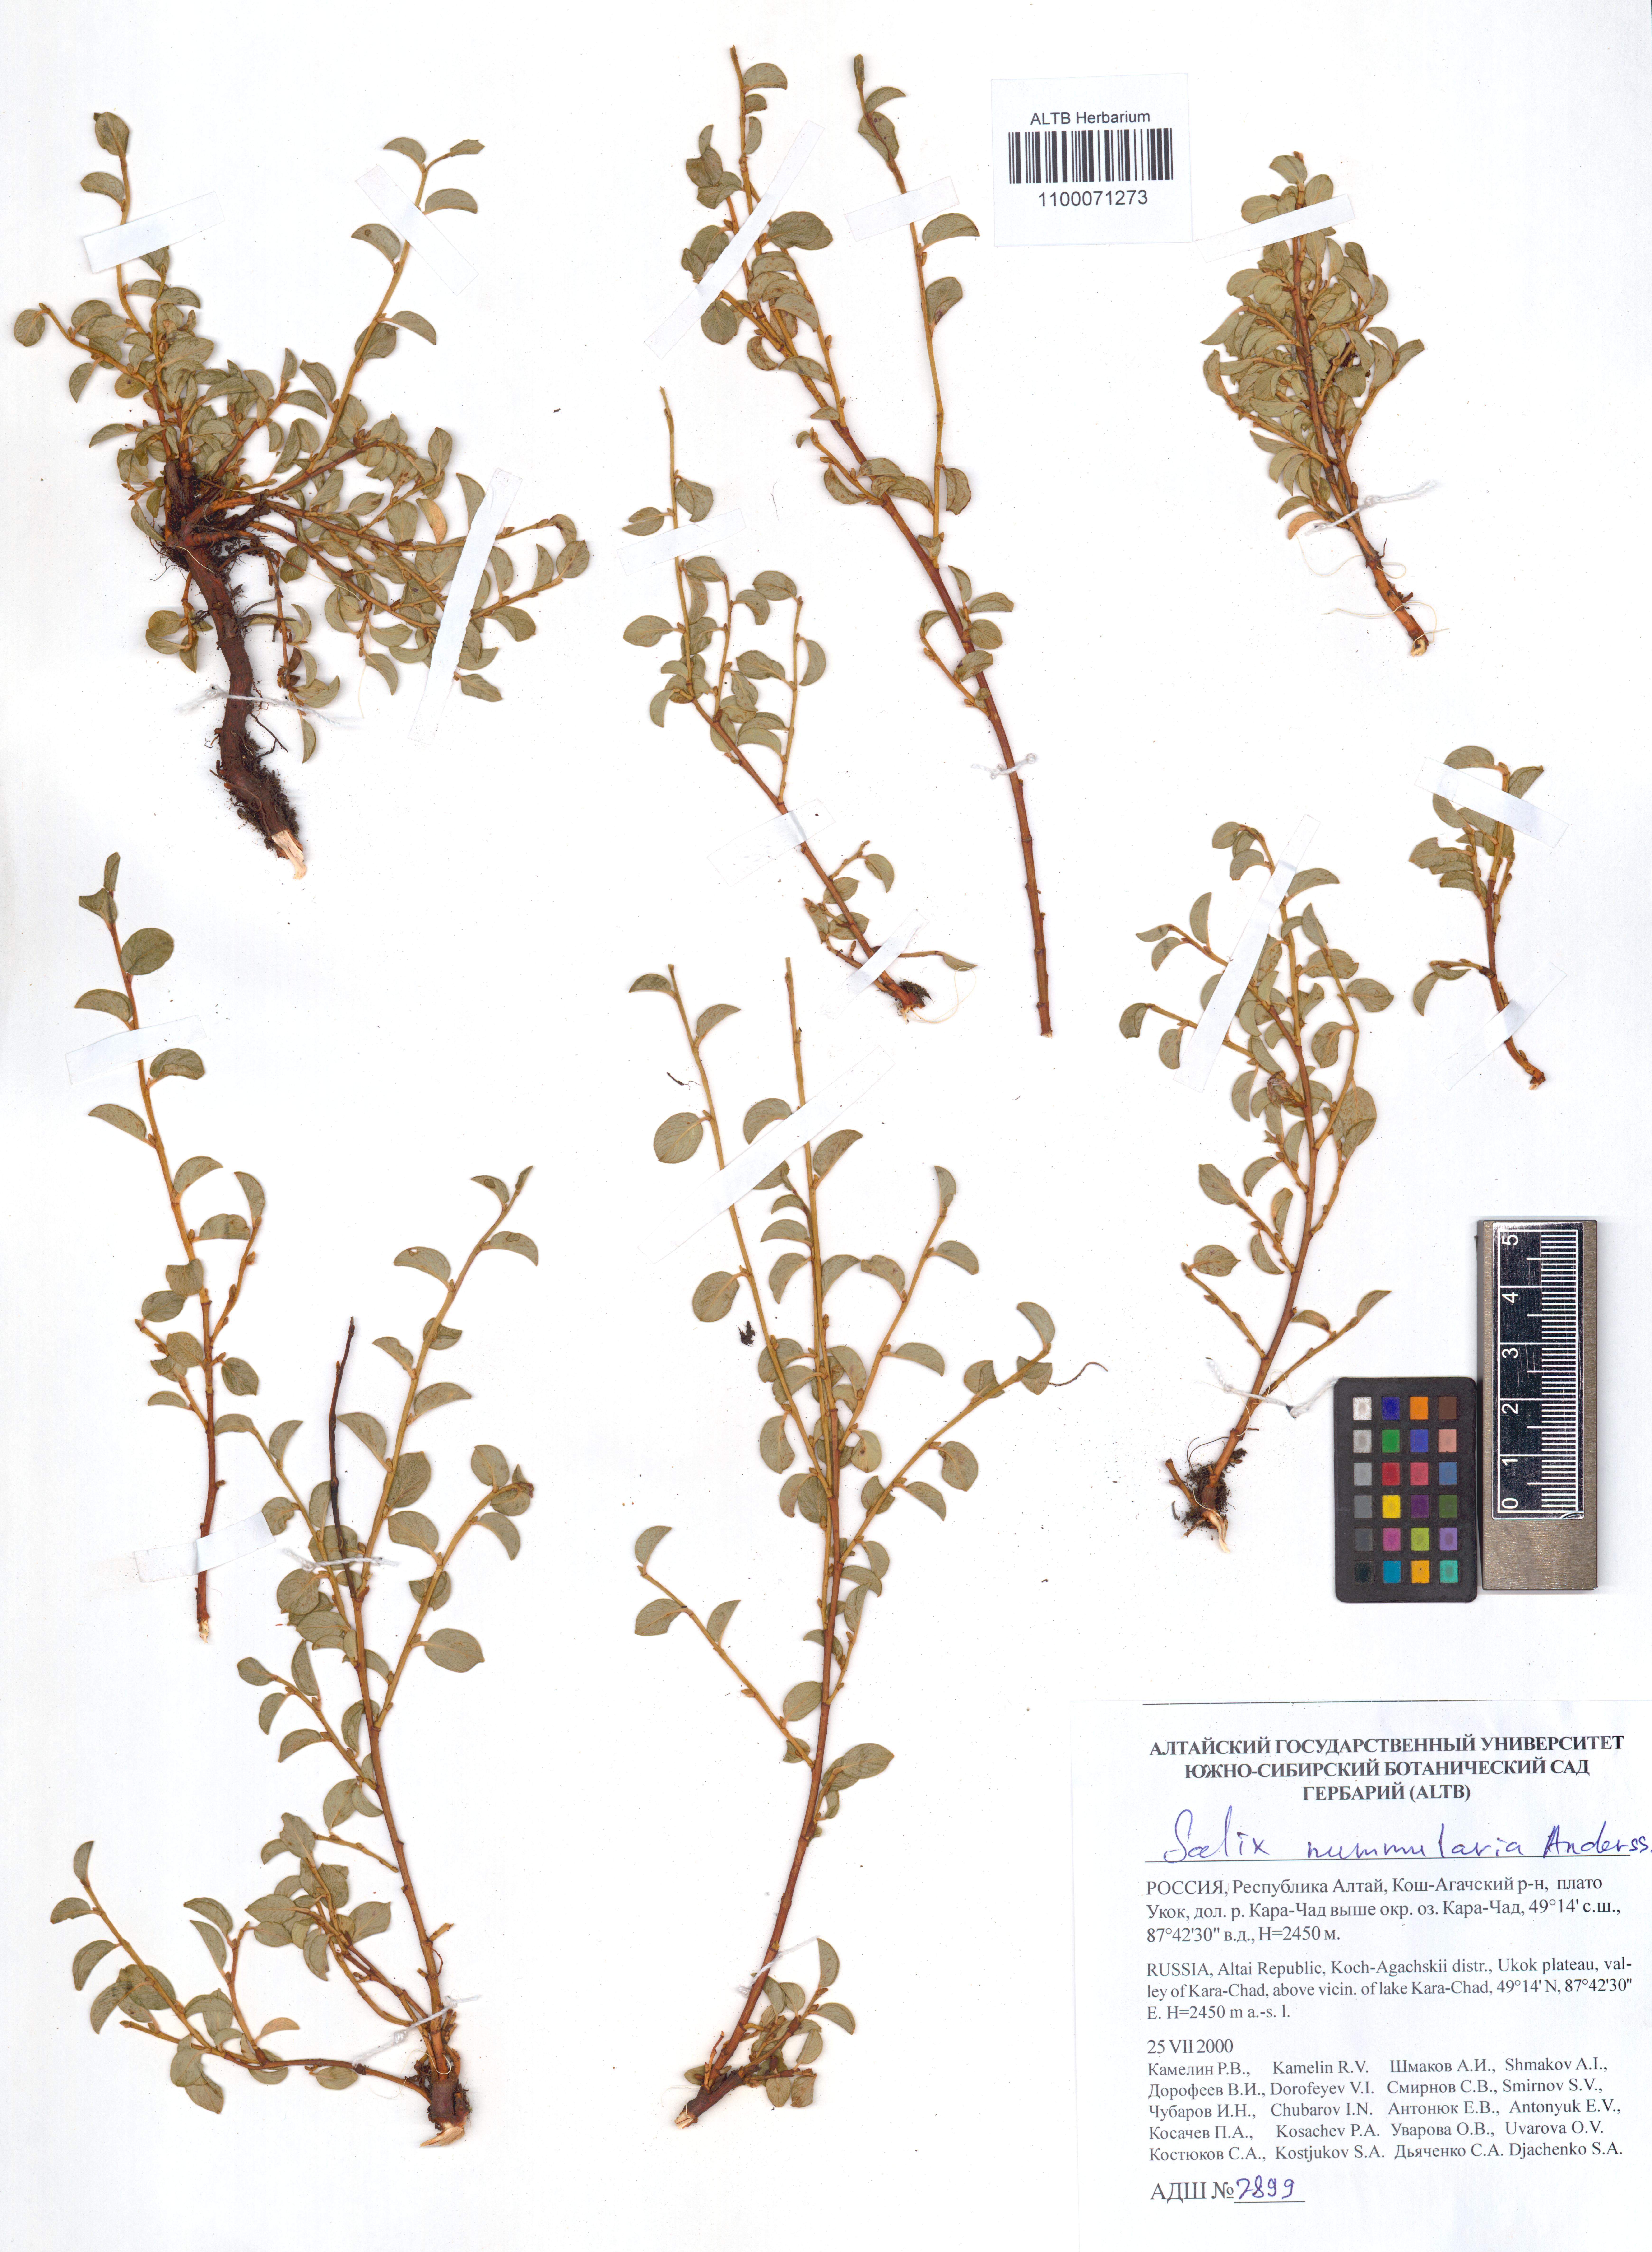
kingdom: Plantae
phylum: Tracheophyta
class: Magnoliopsida
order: Malpighiales
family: Salicaceae
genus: Salix
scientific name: Salix nummularia
